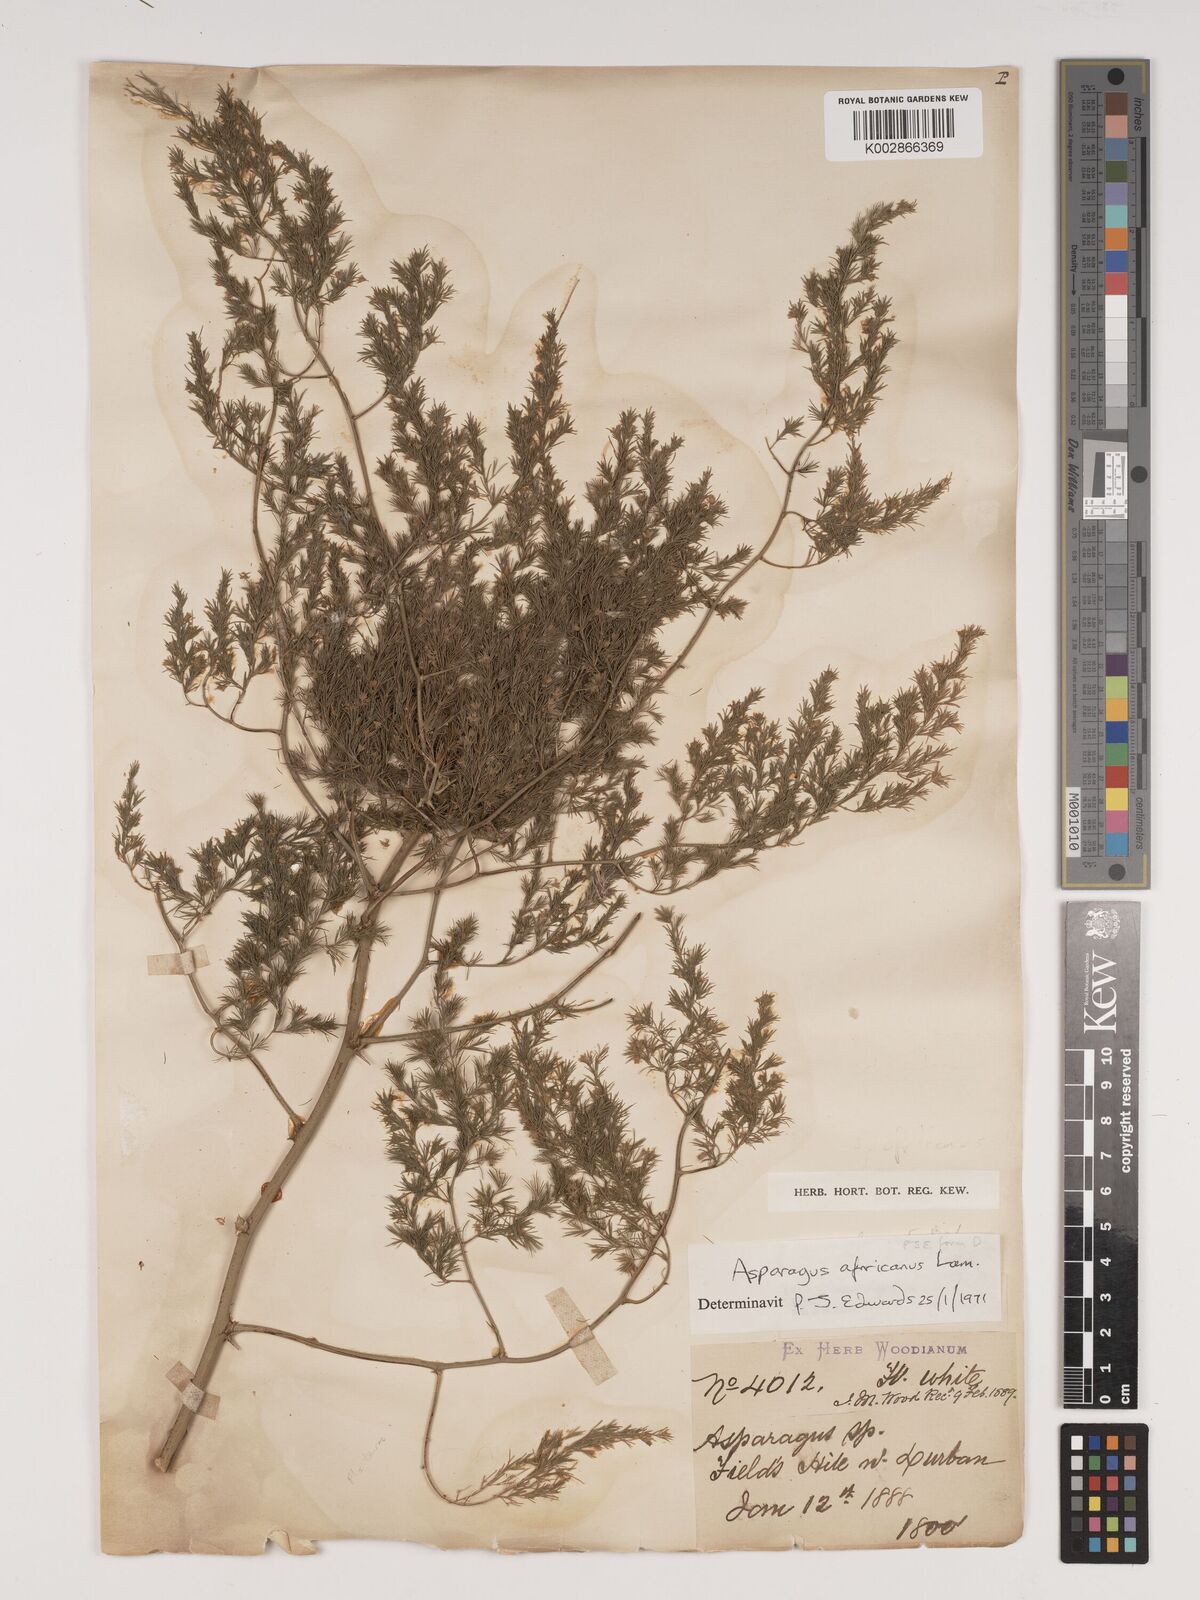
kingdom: Plantae
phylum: Tracheophyta
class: Liliopsida
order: Asparagales
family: Asparagaceae
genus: Asparagus
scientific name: Asparagus africanus
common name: Asparagus-fern
